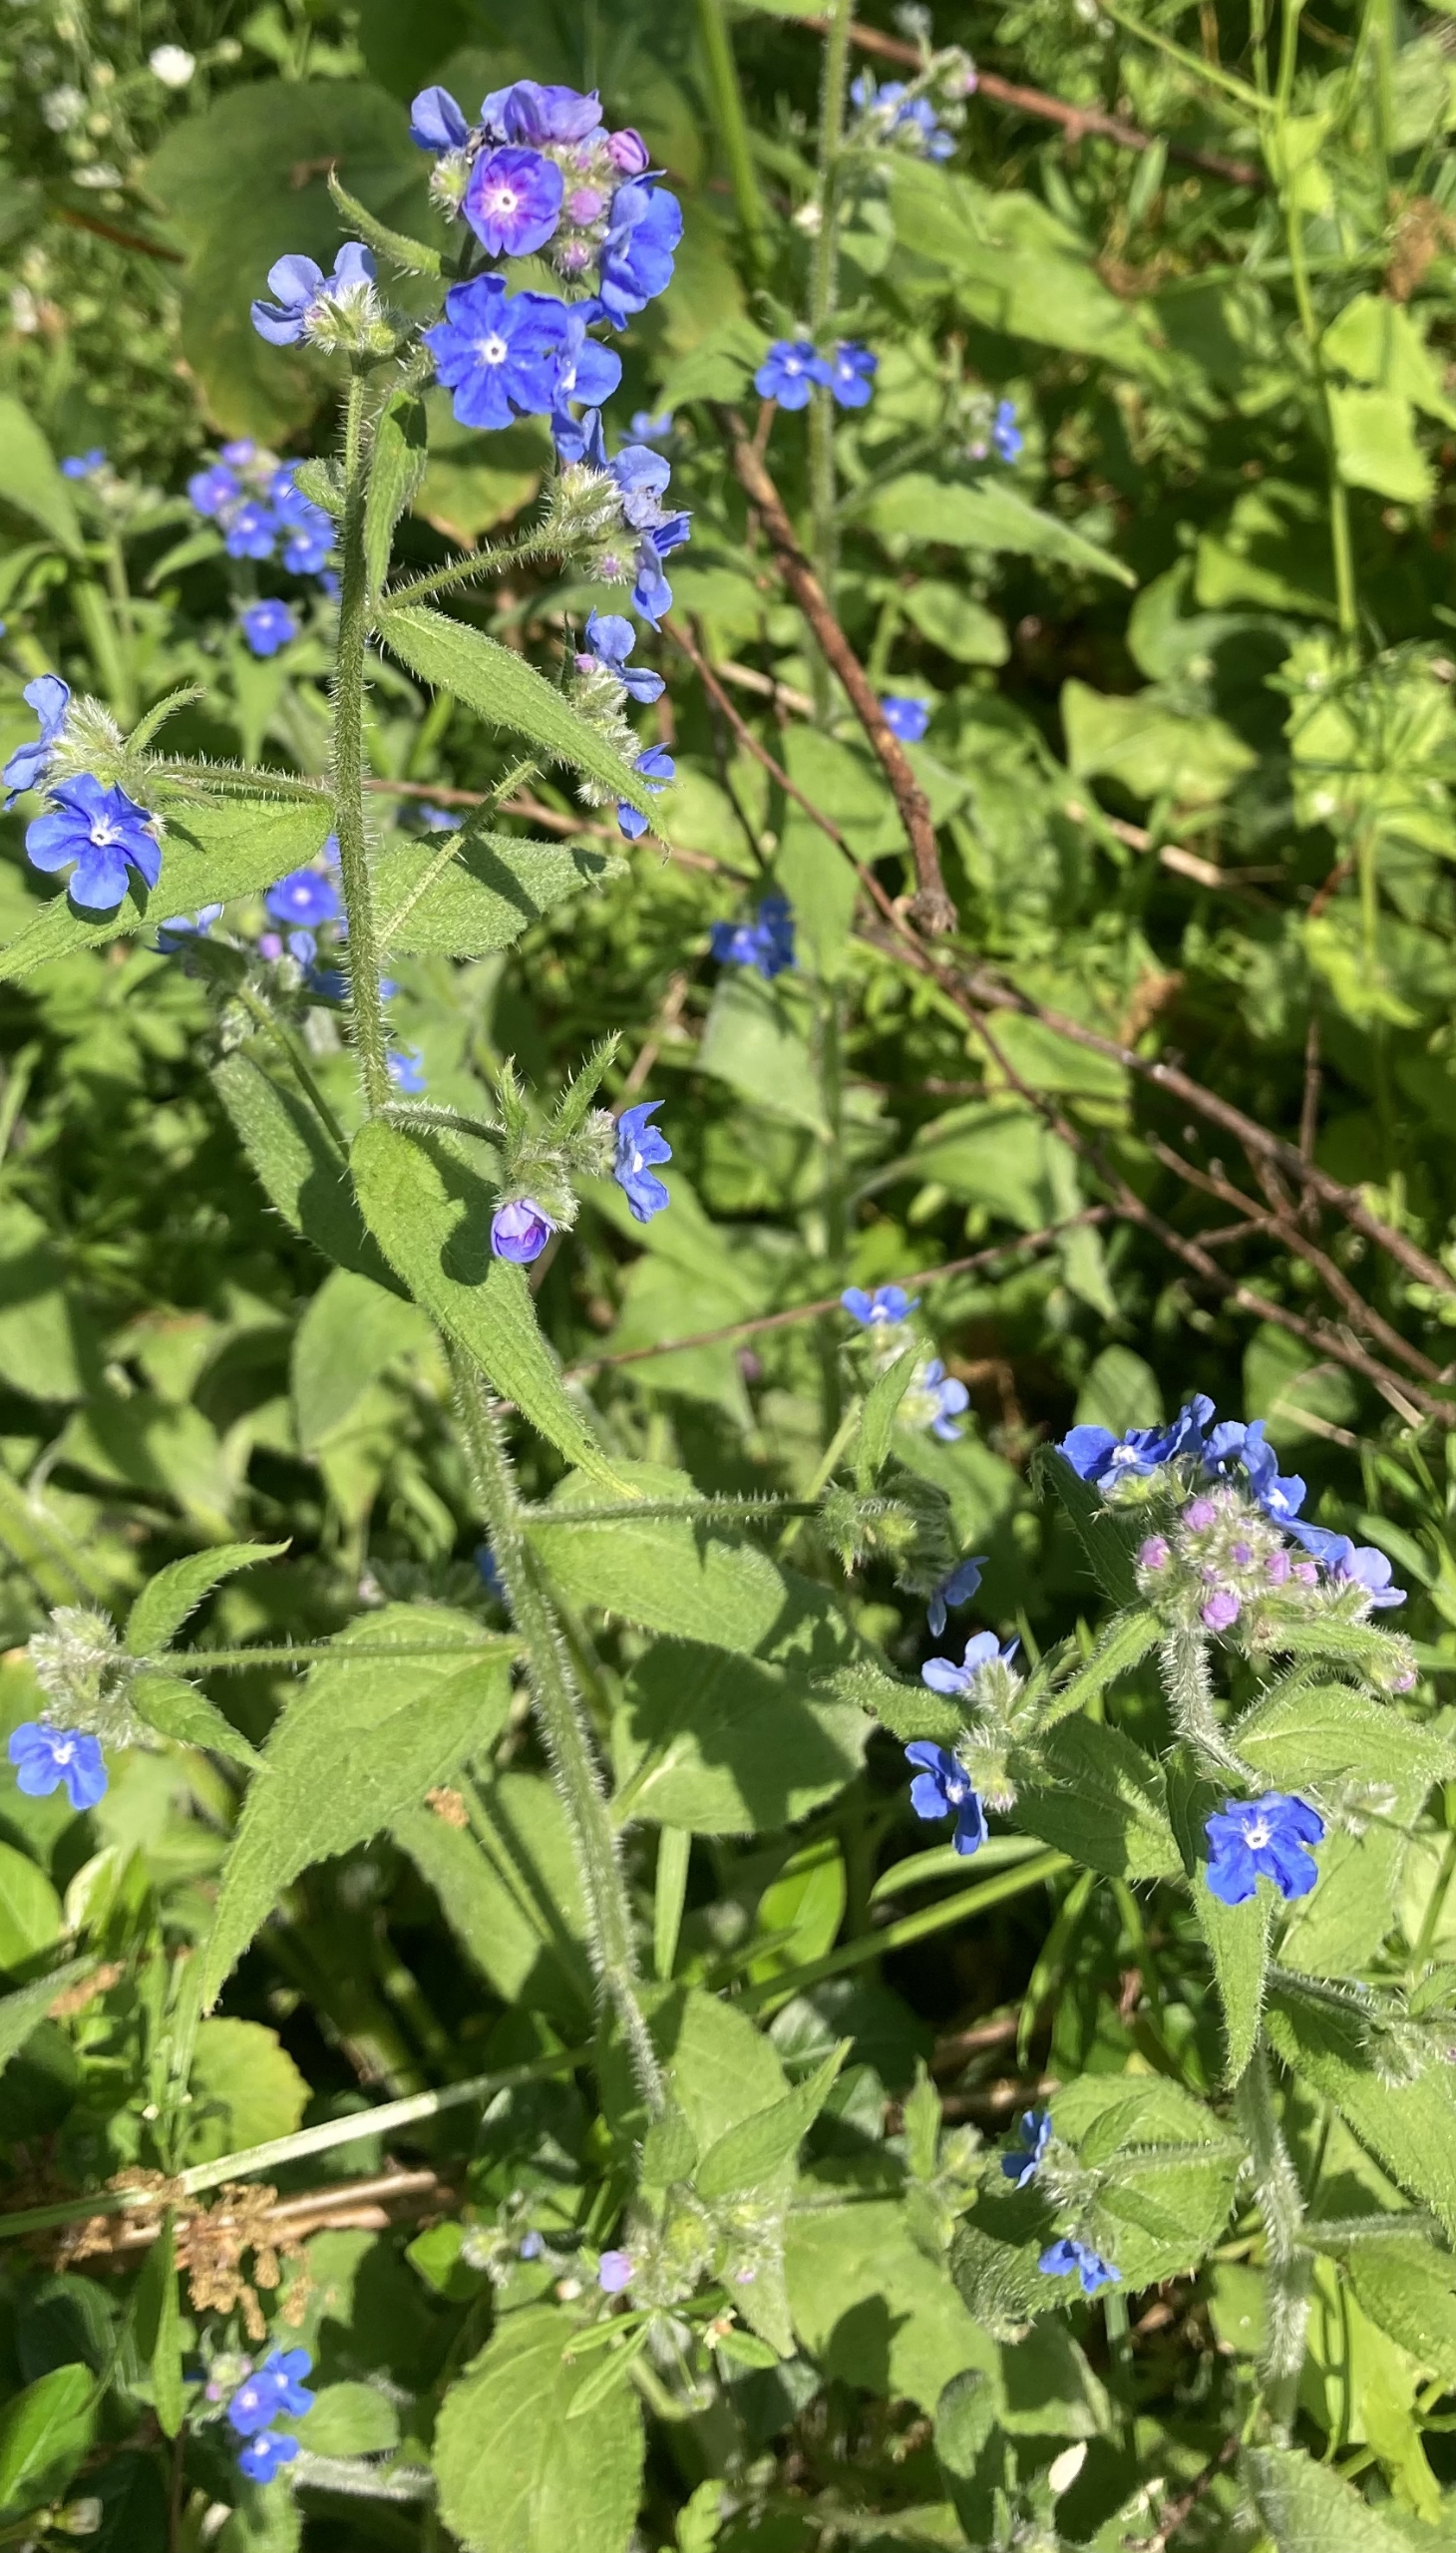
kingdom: Plantae
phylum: Tracheophyta
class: Magnoliopsida
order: Boraginales
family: Boraginaceae
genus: Pentaglottis
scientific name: Pentaglottis sempervirens
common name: Femtunge
